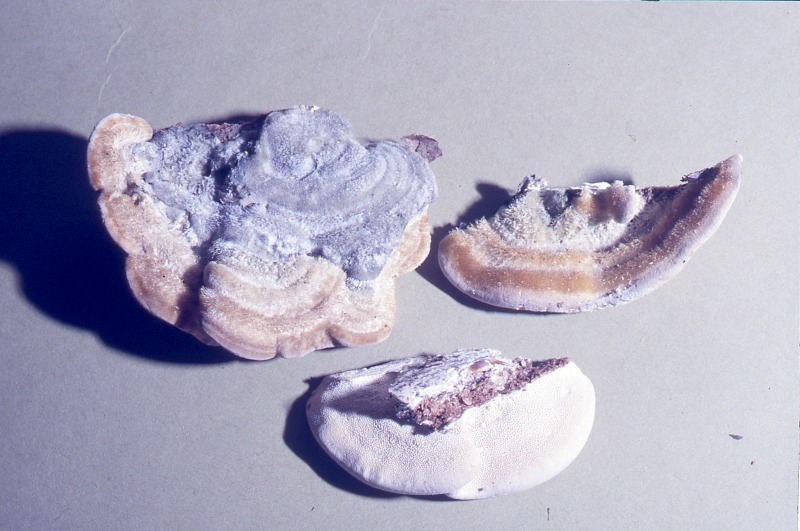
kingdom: Fungi
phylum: Basidiomycota
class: Agaricomycetes
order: Polyporales
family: Polyporaceae
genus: Trametes
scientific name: Trametes hirsuta
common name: Hairy bracket
